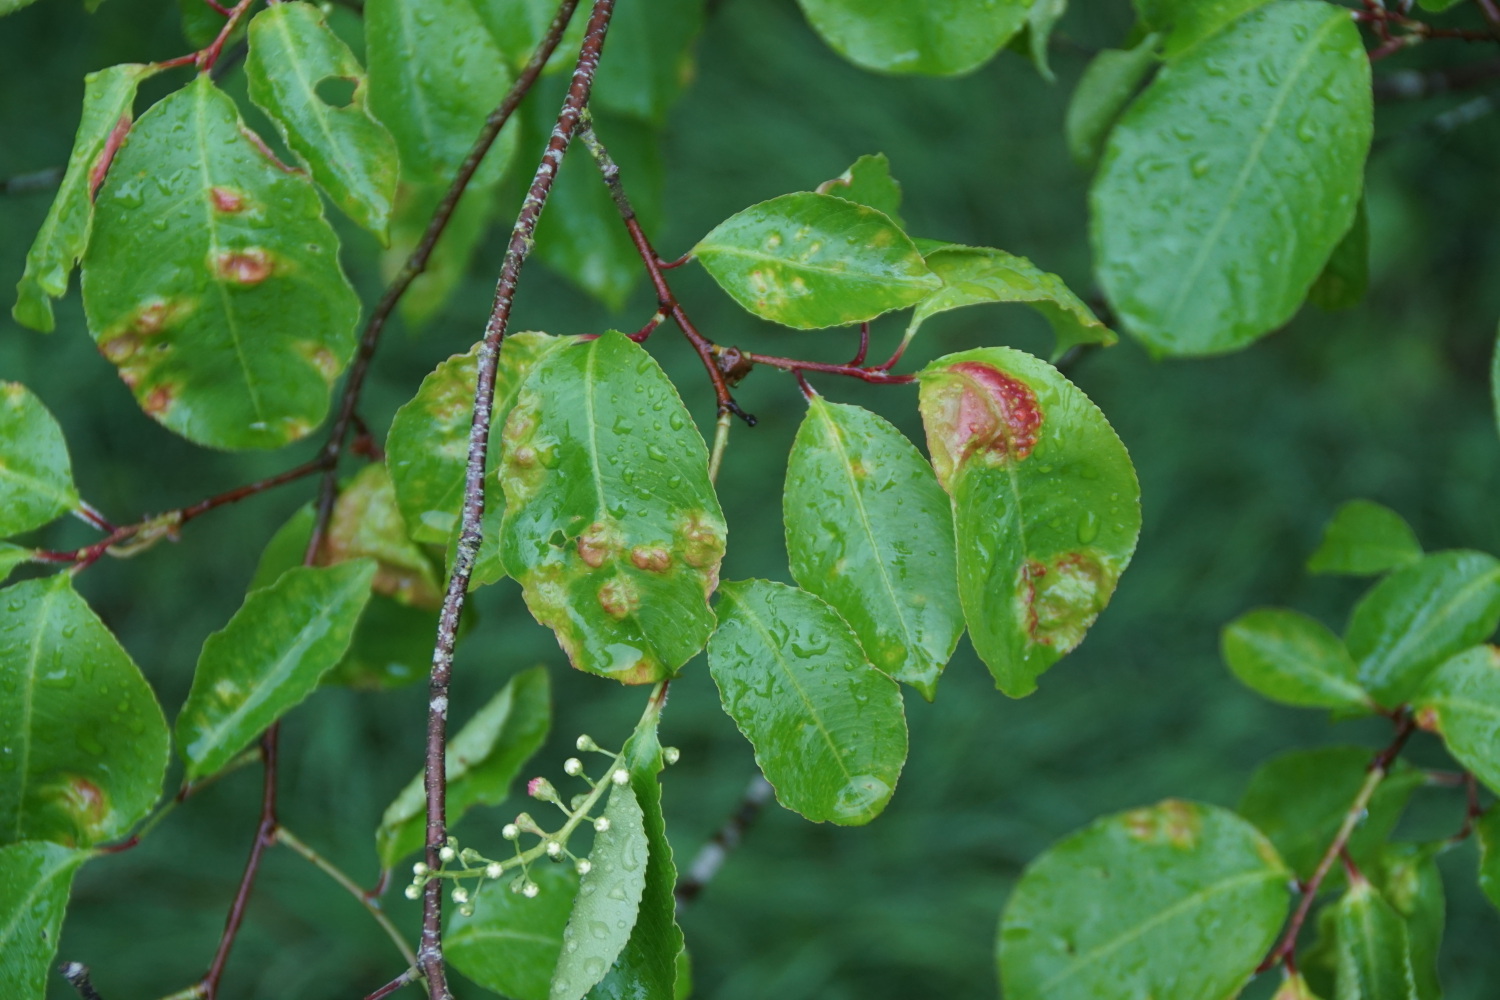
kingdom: Fungi
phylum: Ascomycota
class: Taphrinomycetes
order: Taphrinales
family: Taphrinaceae
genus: Taphrina
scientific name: Taphrina farlowii
